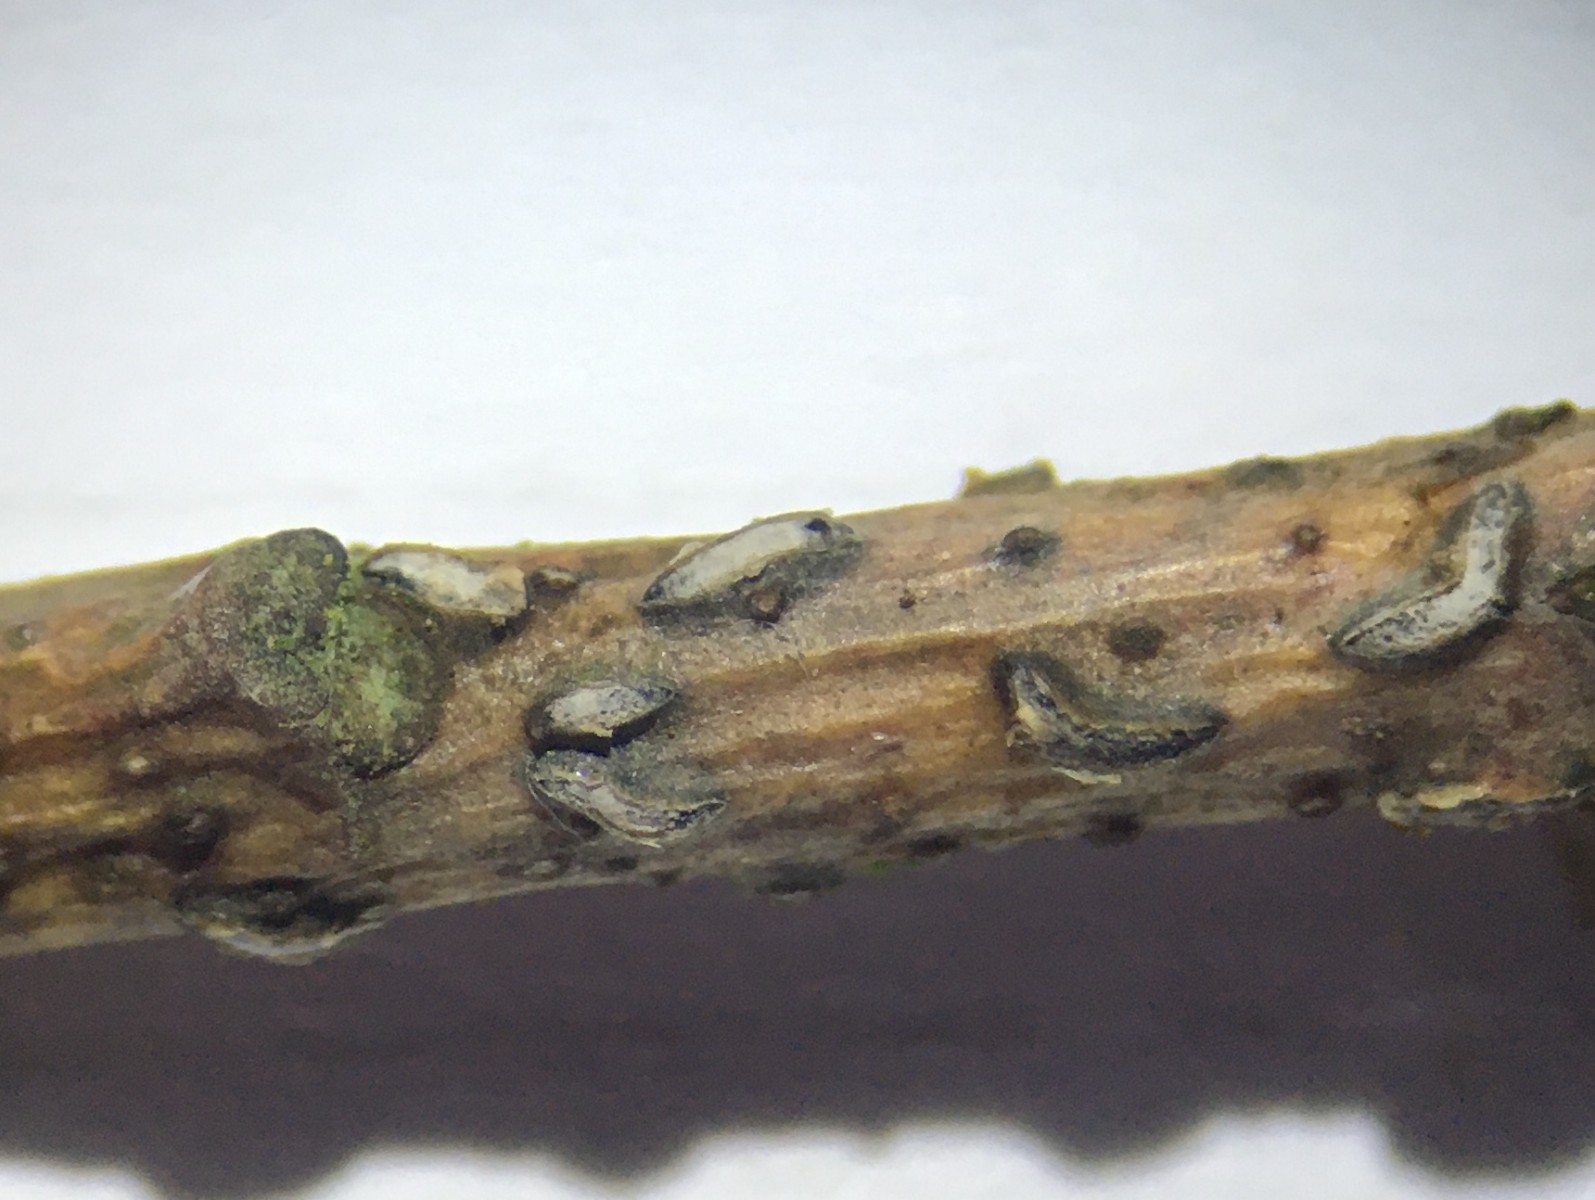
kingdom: Fungi
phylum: Ascomycota
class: Leotiomycetes
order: Rhytismatales
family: Rhytismataceae
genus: Colpoma
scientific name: Colpoma quercinum
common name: ege-sprækkeskive
